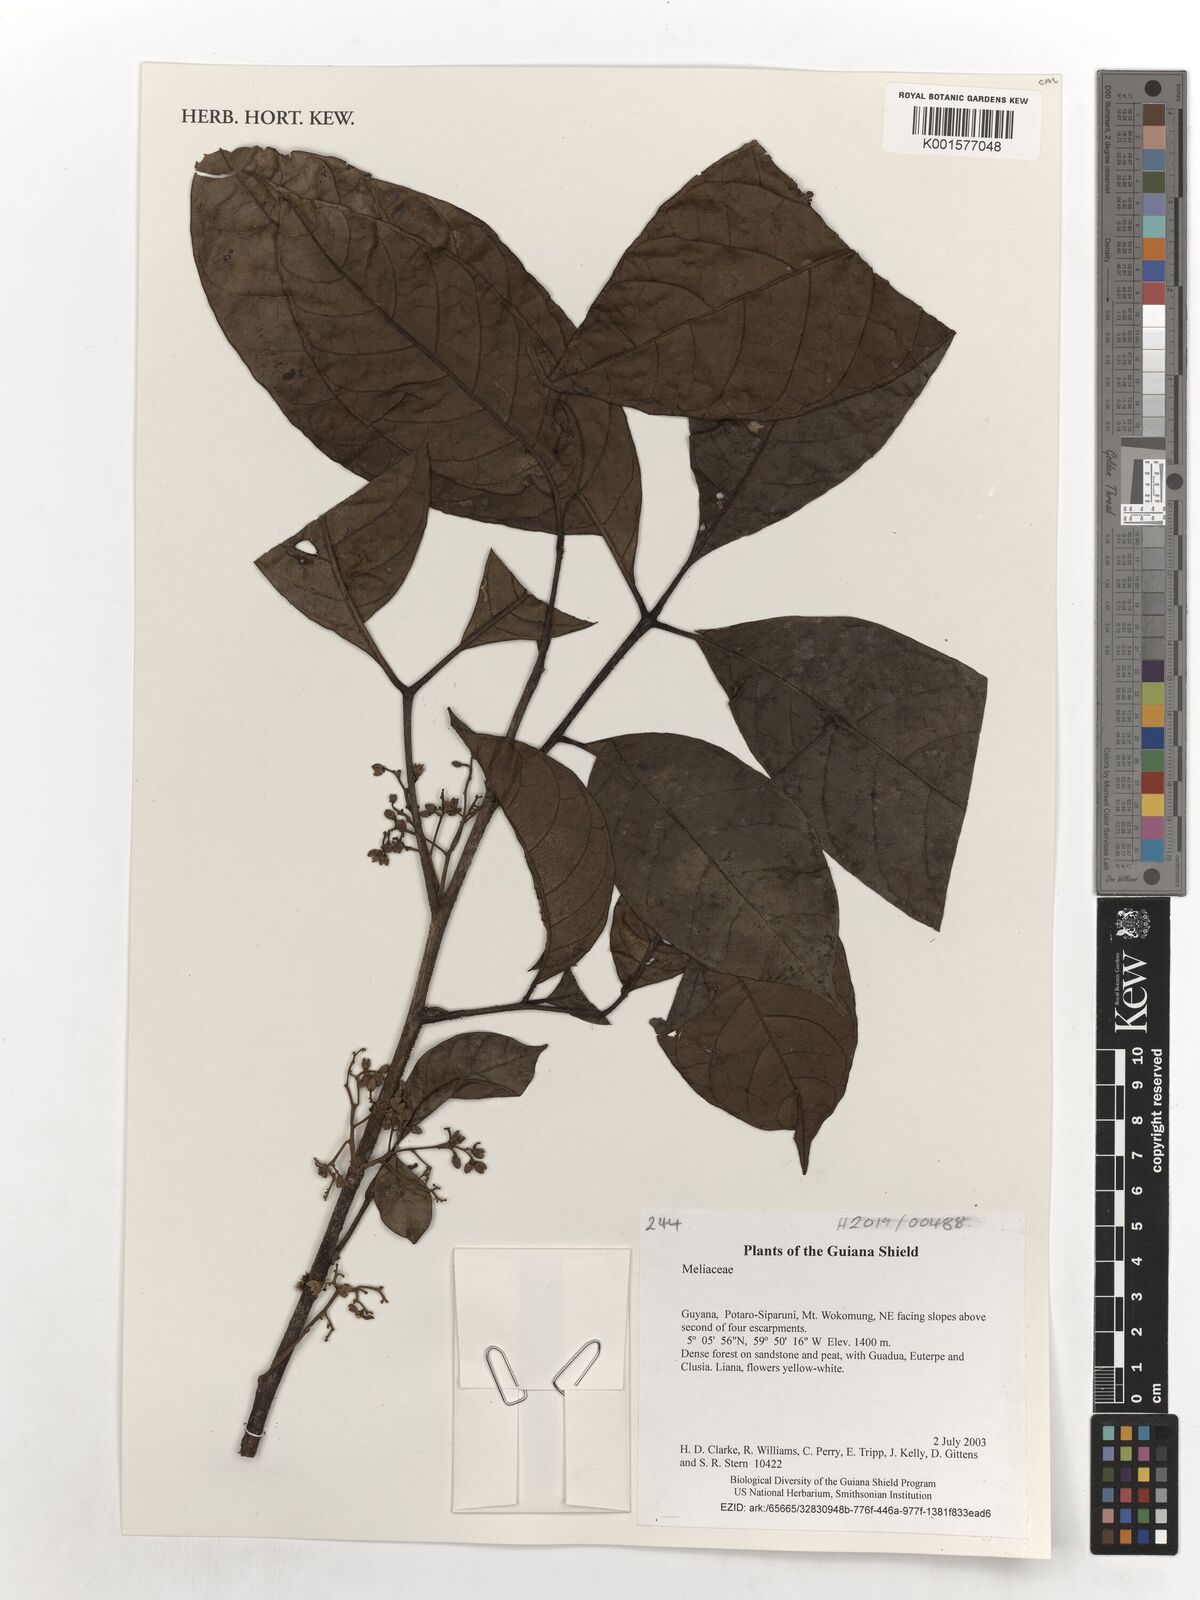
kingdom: Plantae
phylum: Tracheophyta
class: Magnoliopsida
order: Sapindales
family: Meliaceae
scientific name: Meliaceae
